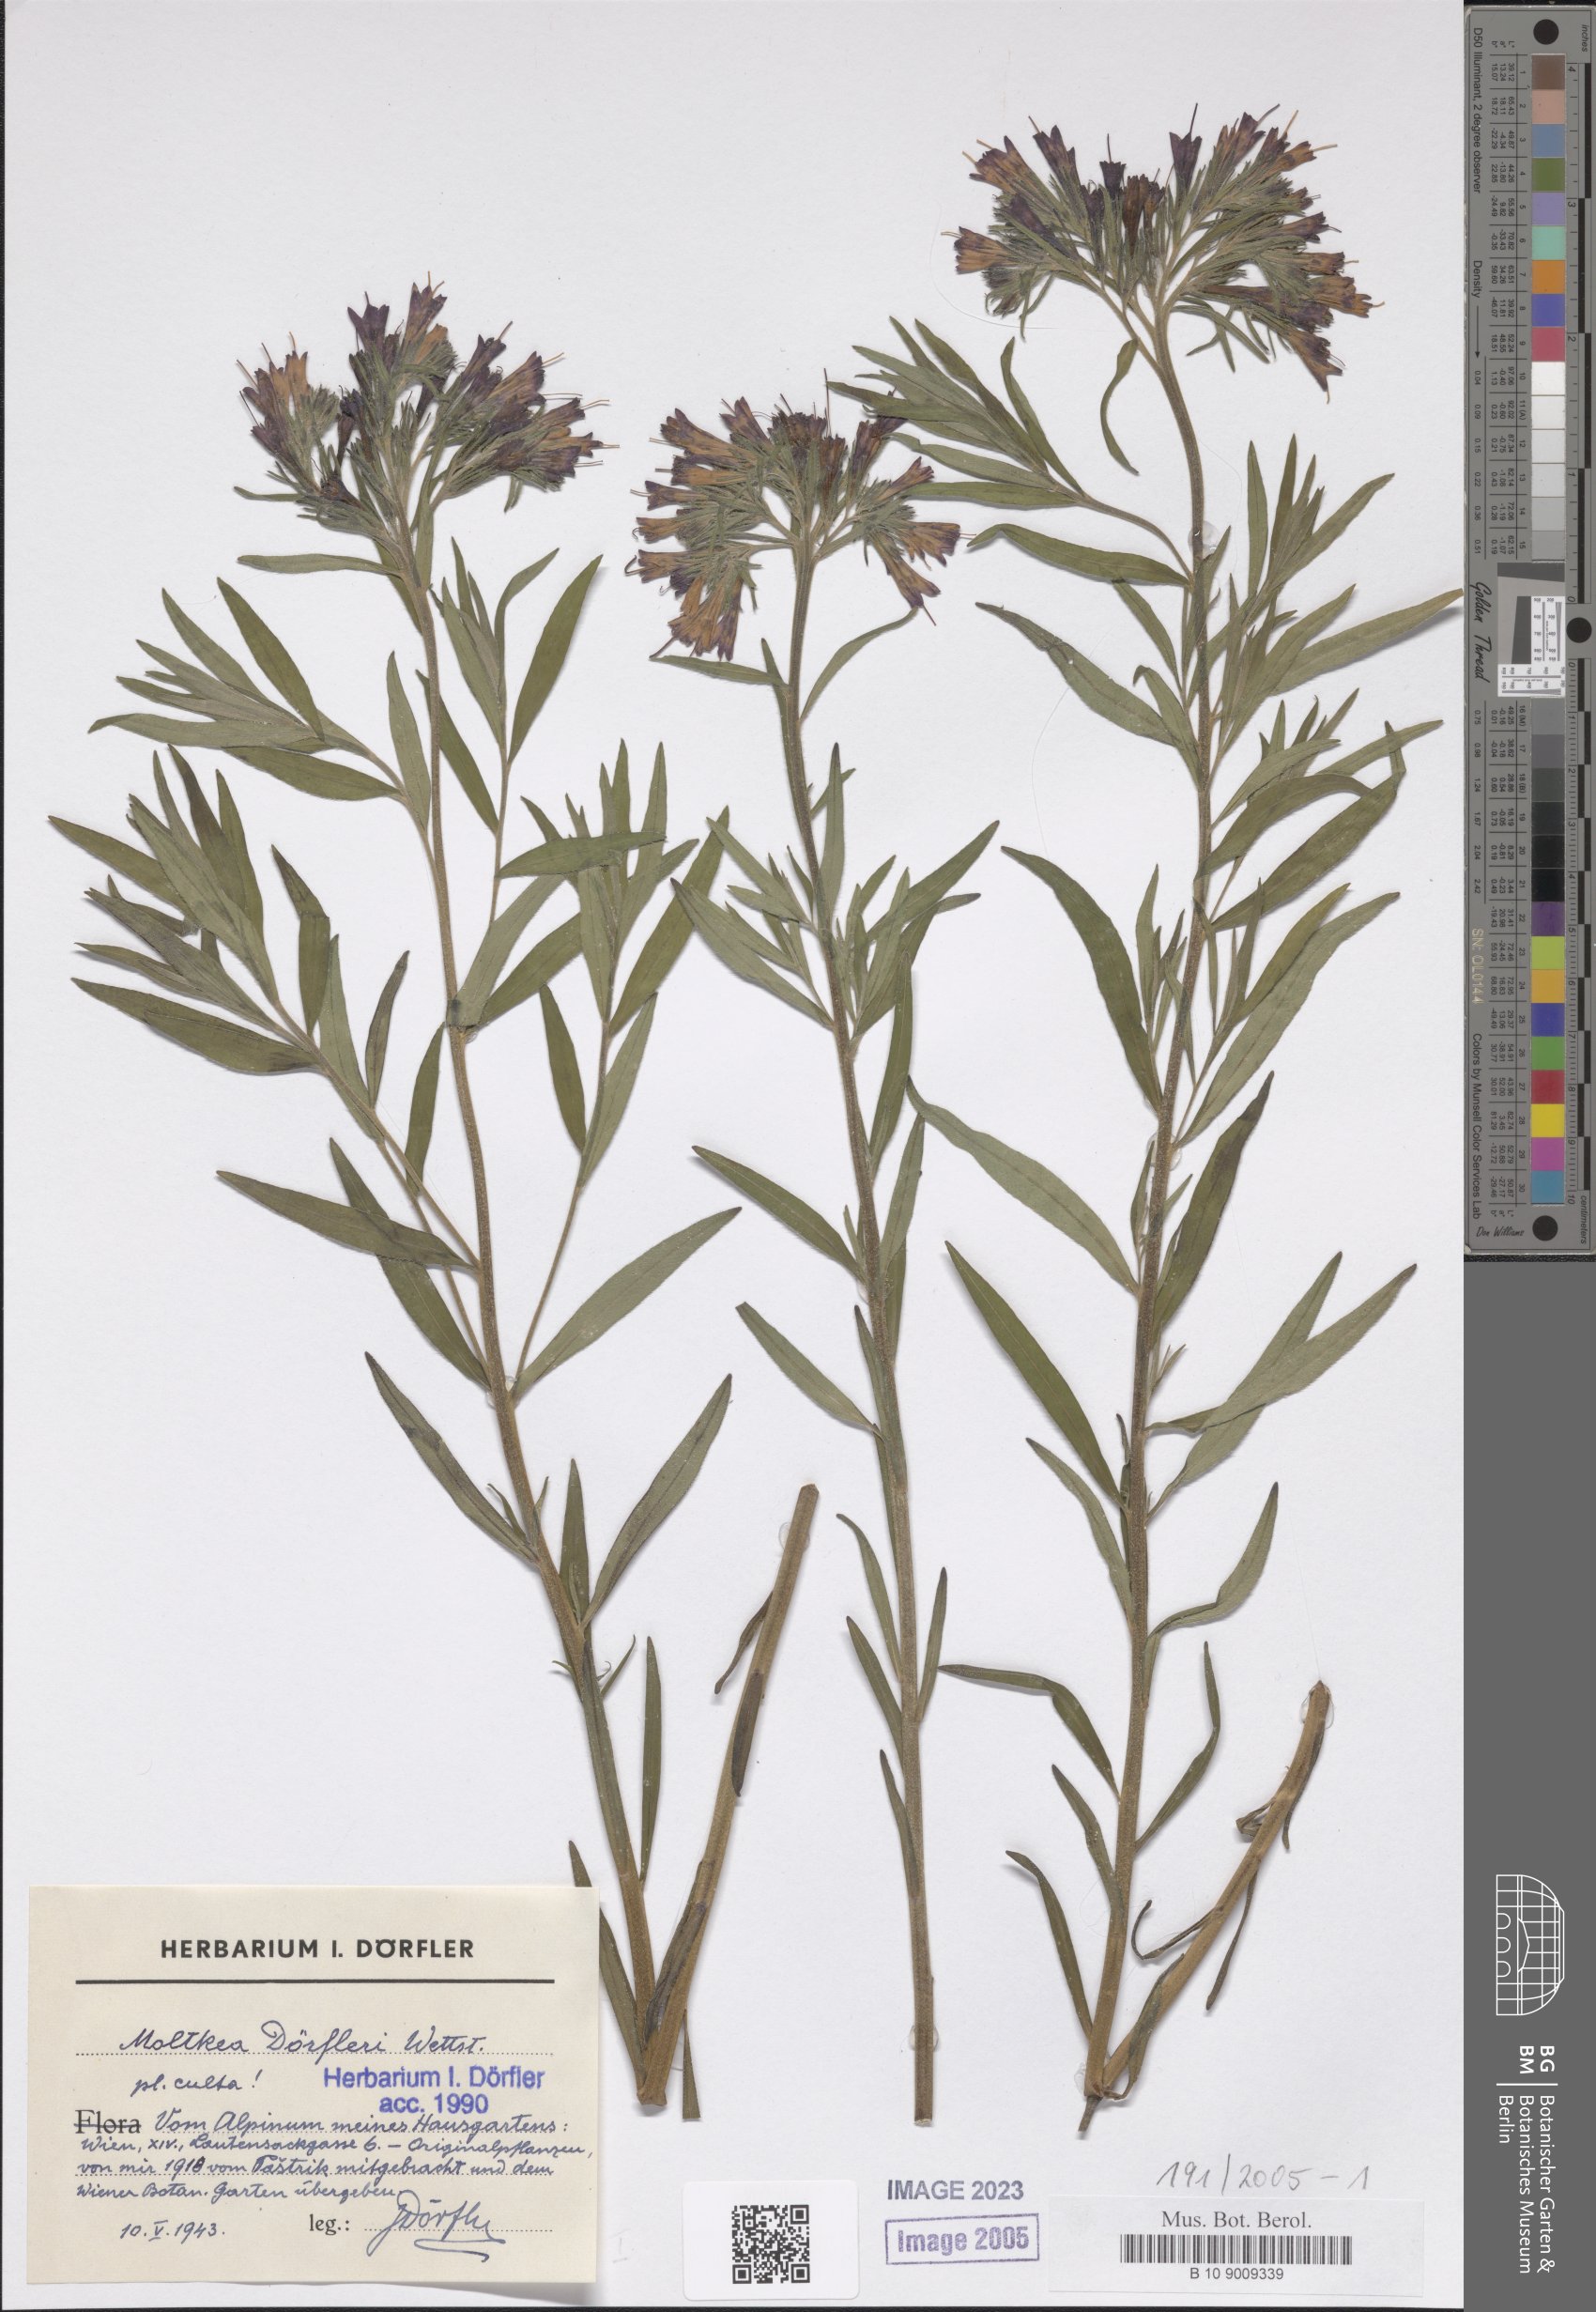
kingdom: Plantae
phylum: Tracheophyta
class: Magnoliopsida
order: Boraginales
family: Boraginaceae
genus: Paramoltkia
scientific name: Paramoltkia doerfleri
